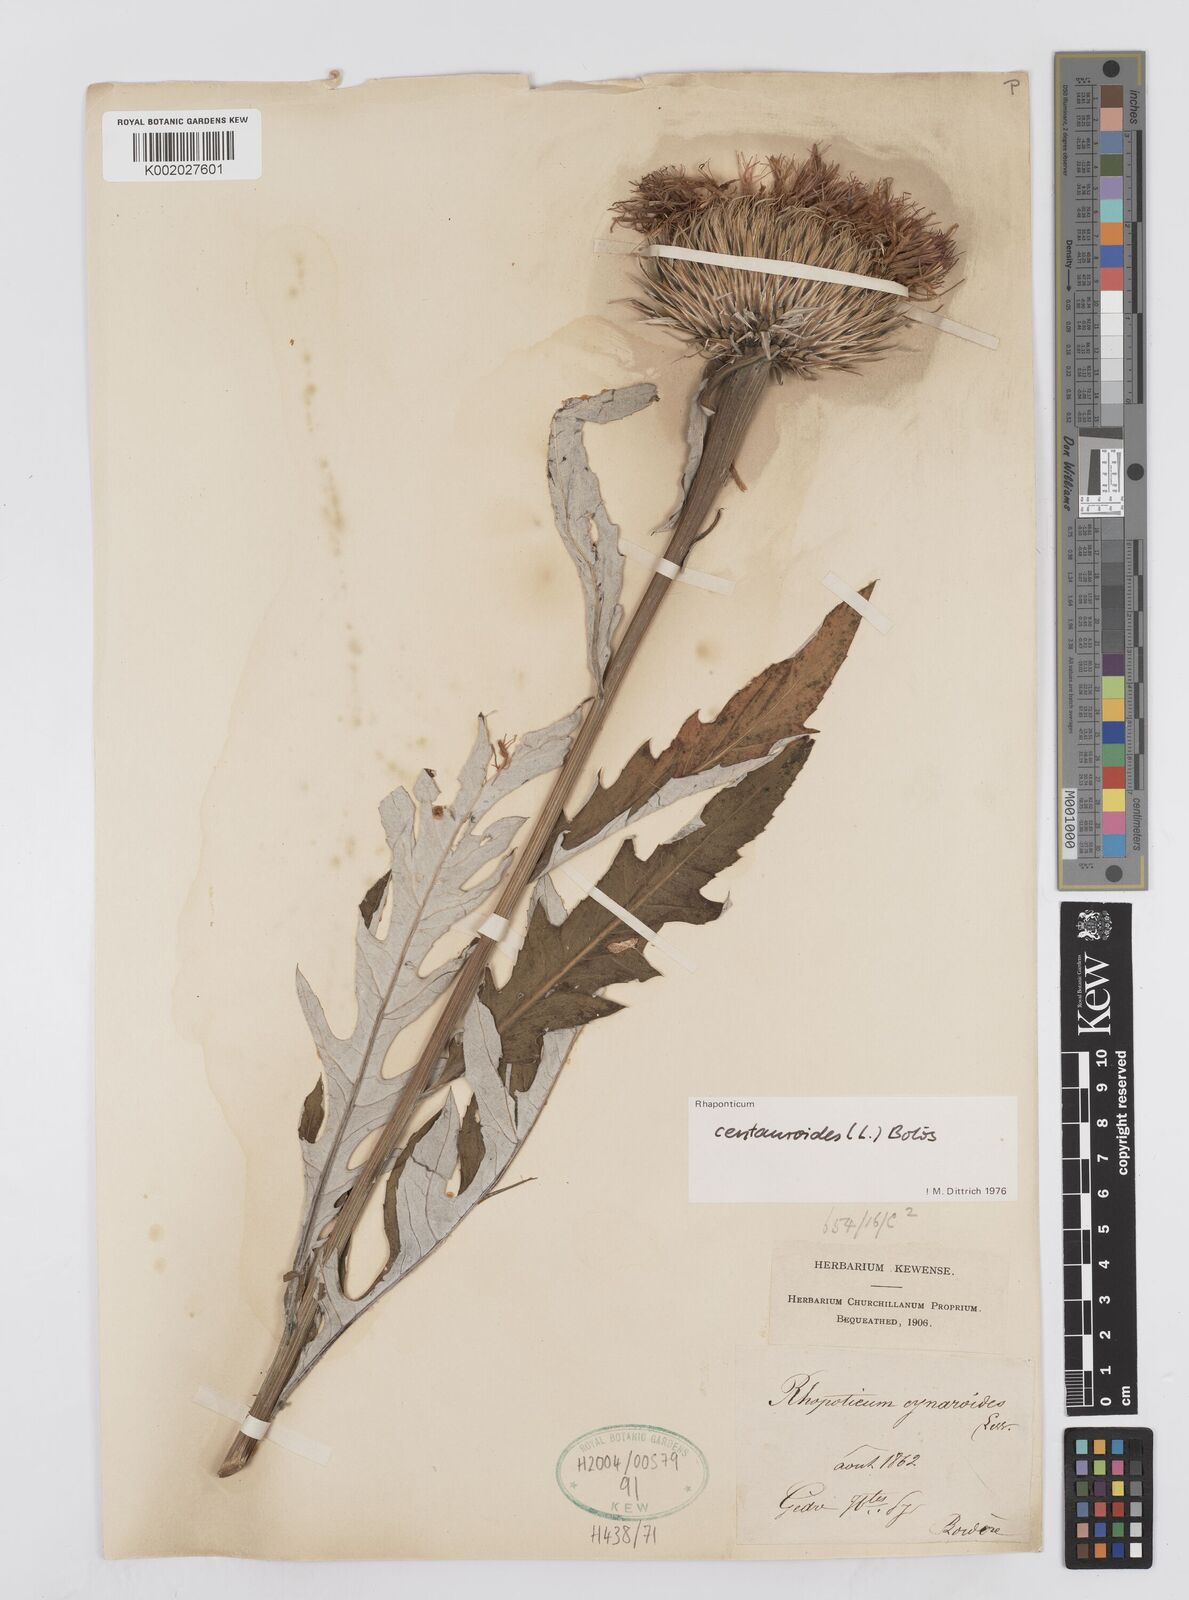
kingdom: Plantae
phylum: Tracheophyta
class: Magnoliopsida
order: Asterales
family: Asteraceae
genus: Leuzea
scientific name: Leuzea centauroides
